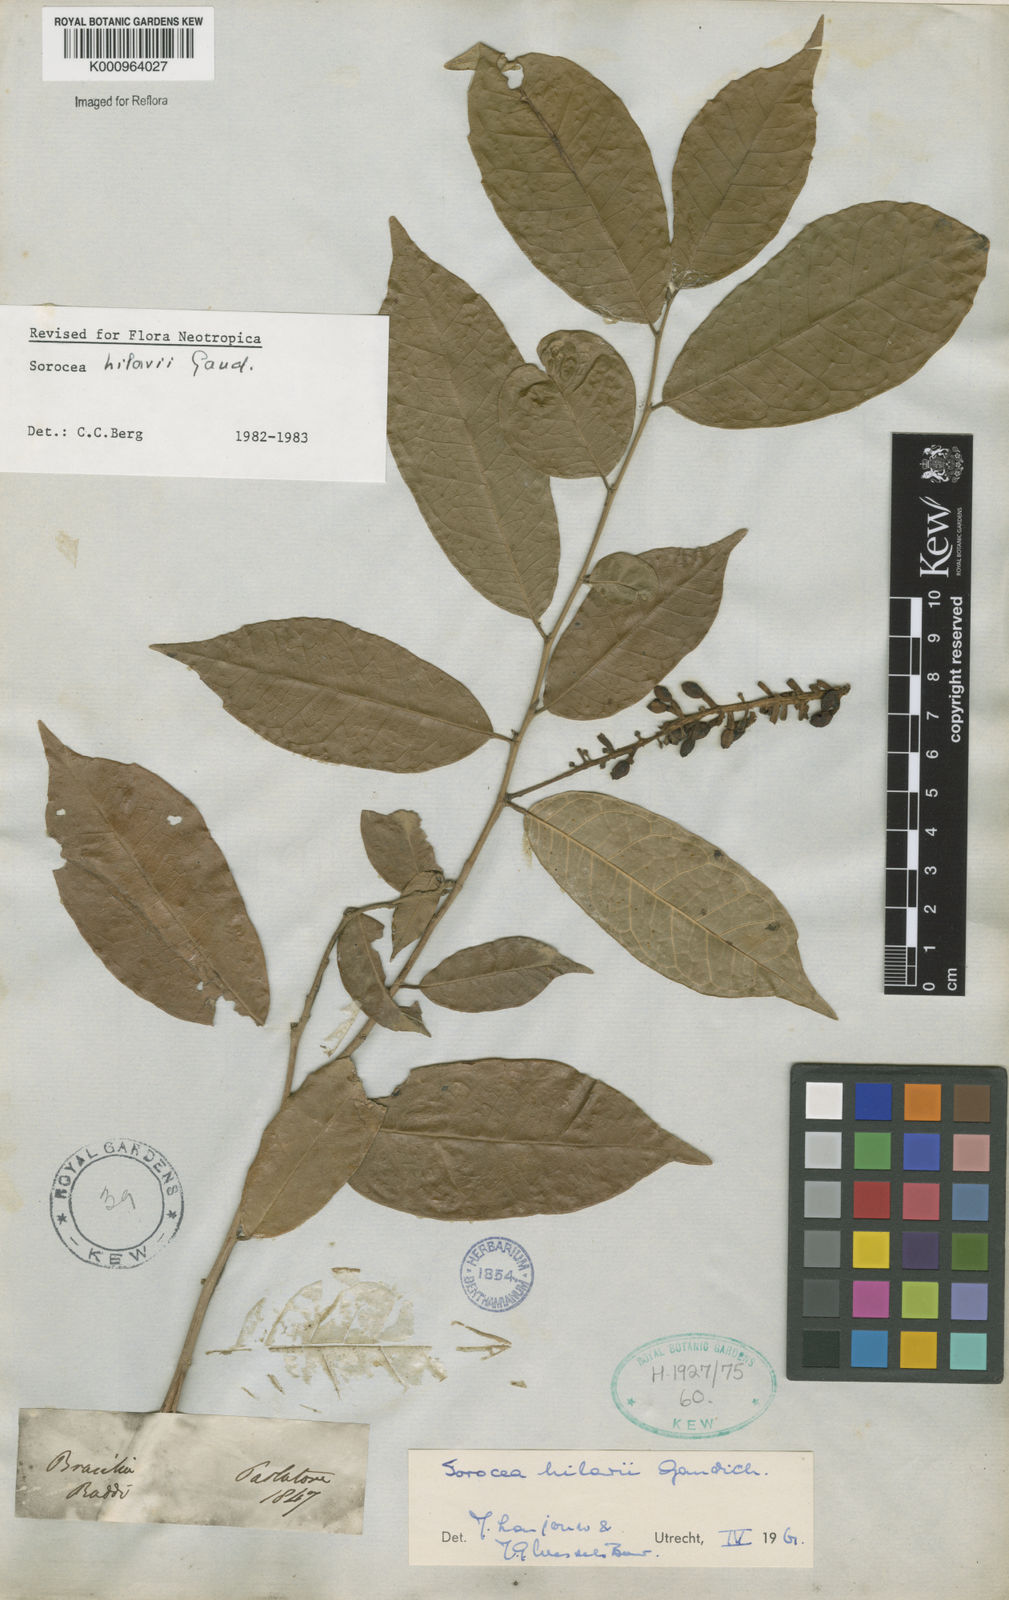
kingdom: Plantae
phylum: Tracheophyta
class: Magnoliopsida
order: Rosales
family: Moraceae
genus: Sorocea
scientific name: Sorocea hilarii
